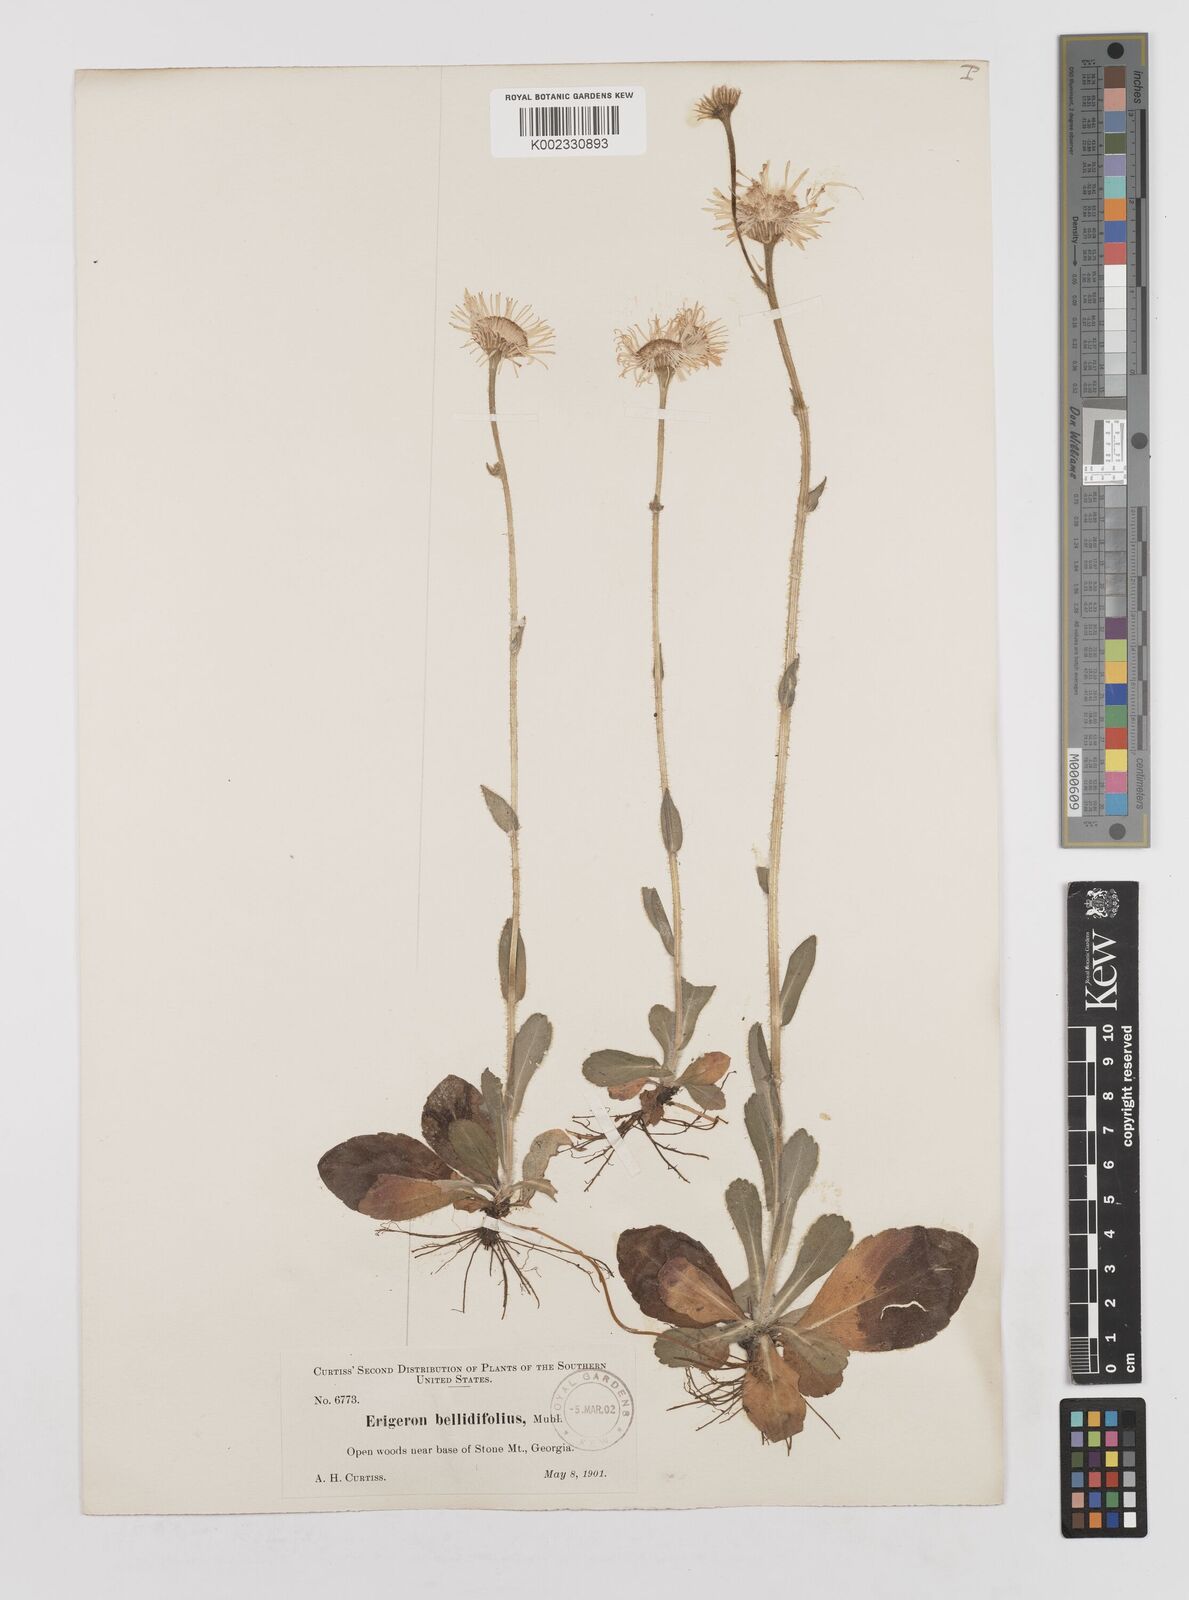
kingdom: Plantae
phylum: Tracheophyta
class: Magnoliopsida
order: Asterales
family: Asteraceae
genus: Erigeron
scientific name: Erigeron pulchellus
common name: Hairy fleabane
